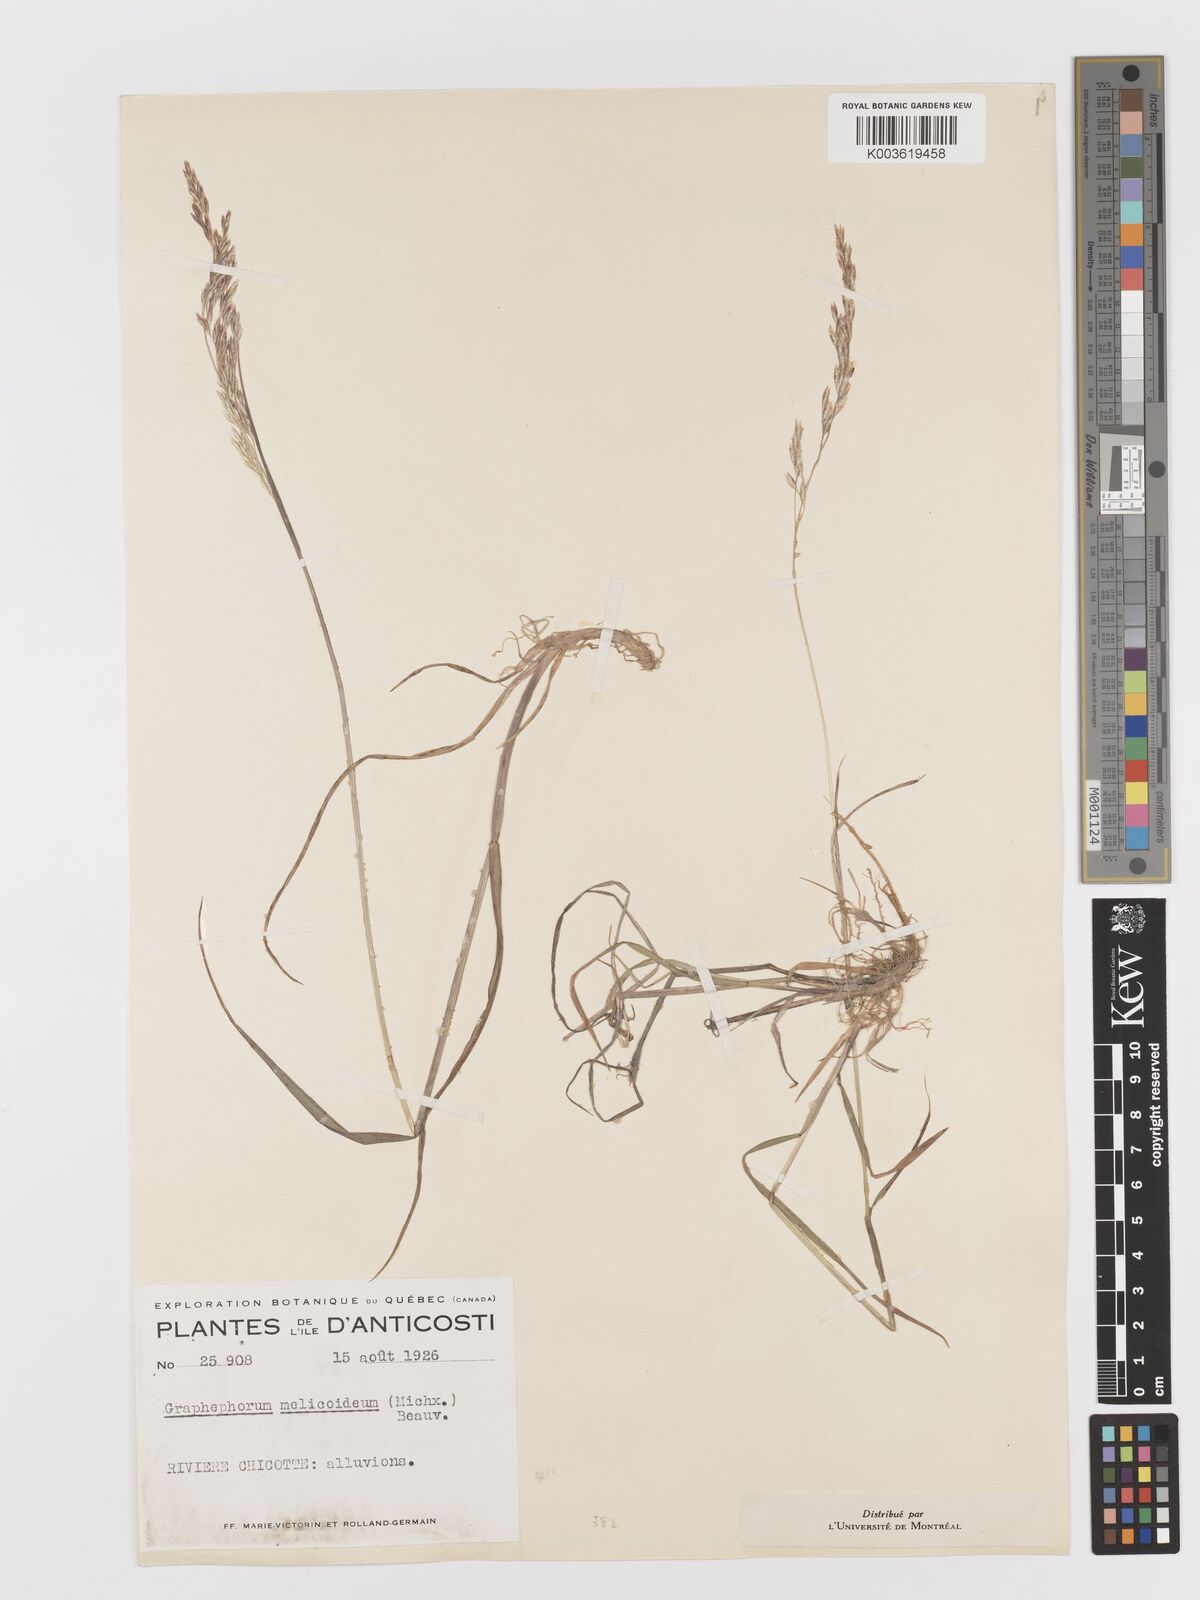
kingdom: Plantae
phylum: Tracheophyta
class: Liliopsida
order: Poales
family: Poaceae
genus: Graphephorum
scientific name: Graphephorum melicoides
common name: False melic
